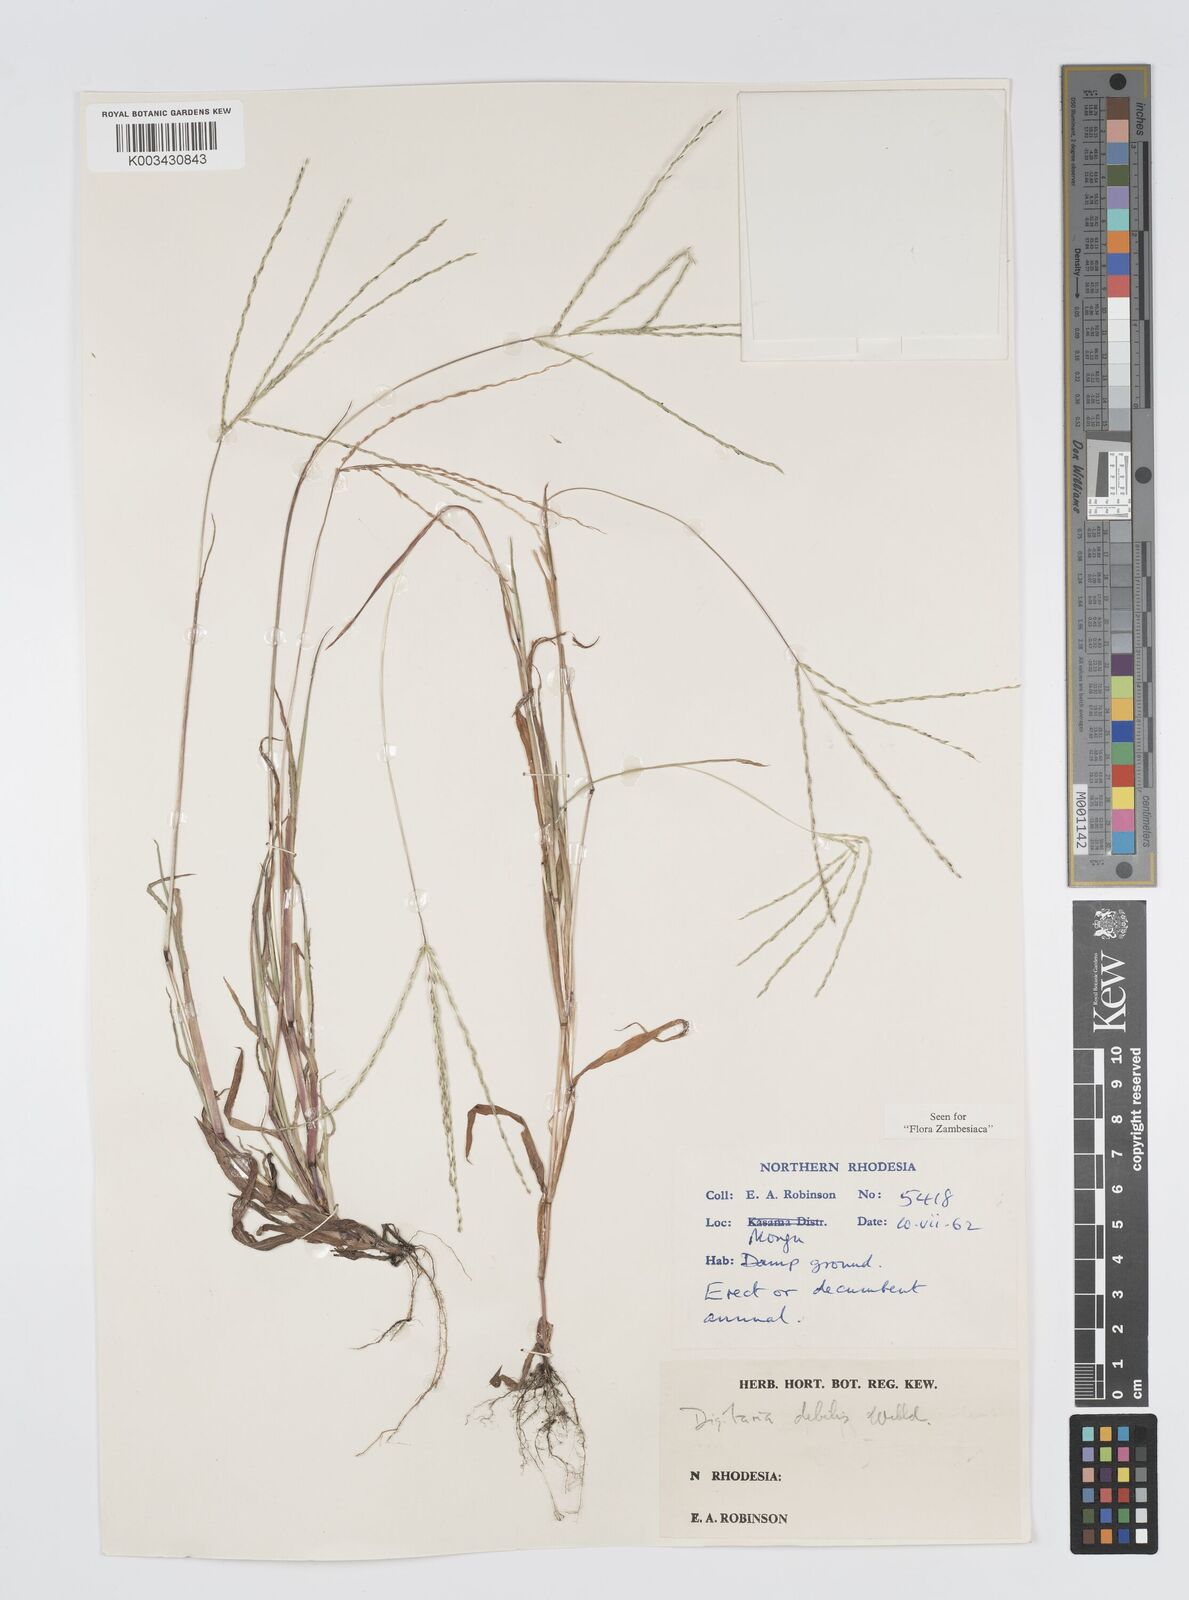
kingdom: Plantae
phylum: Tracheophyta
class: Liliopsida
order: Poales
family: Poaceae
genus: Digitaria
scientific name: Digitaria debilis
